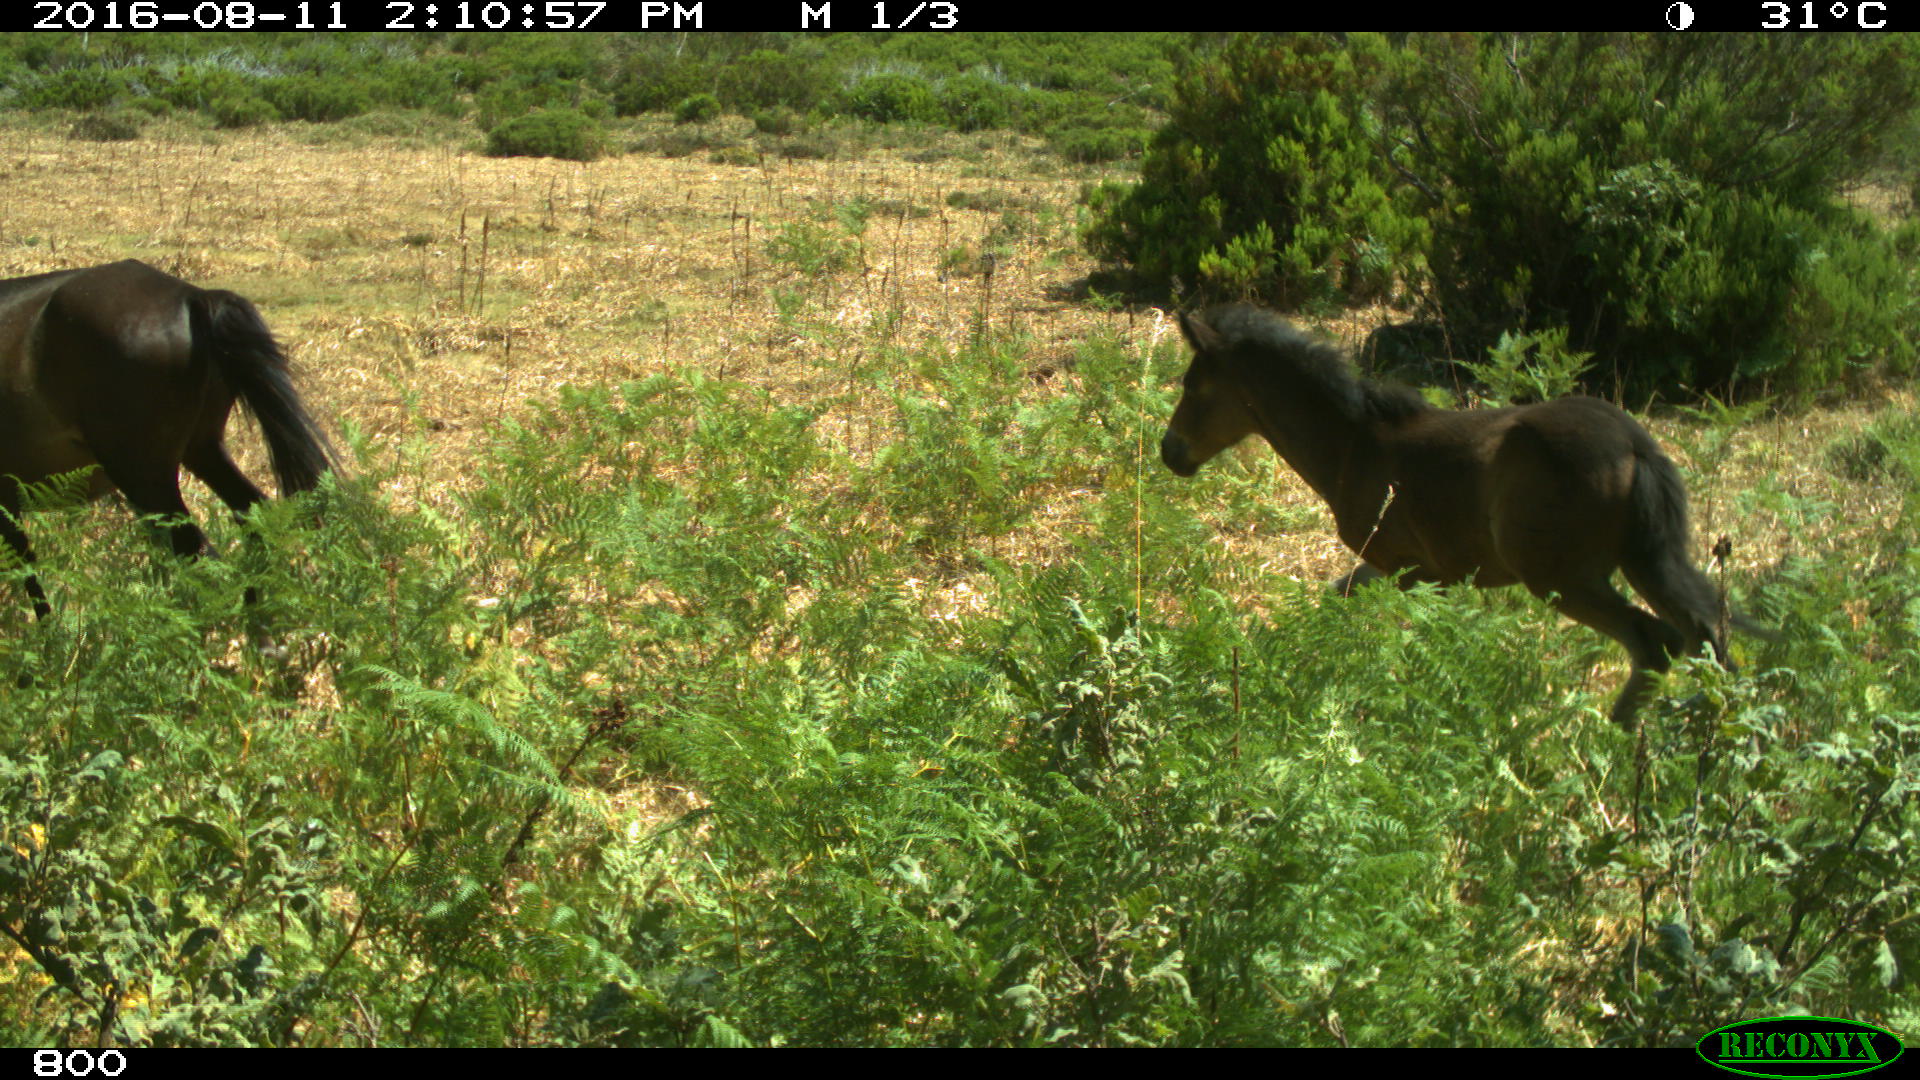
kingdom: Animalia
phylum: Chordata
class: Mammalia
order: Perissodactyla
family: Equidae
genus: Equus
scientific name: Equus caballus
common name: Horse
